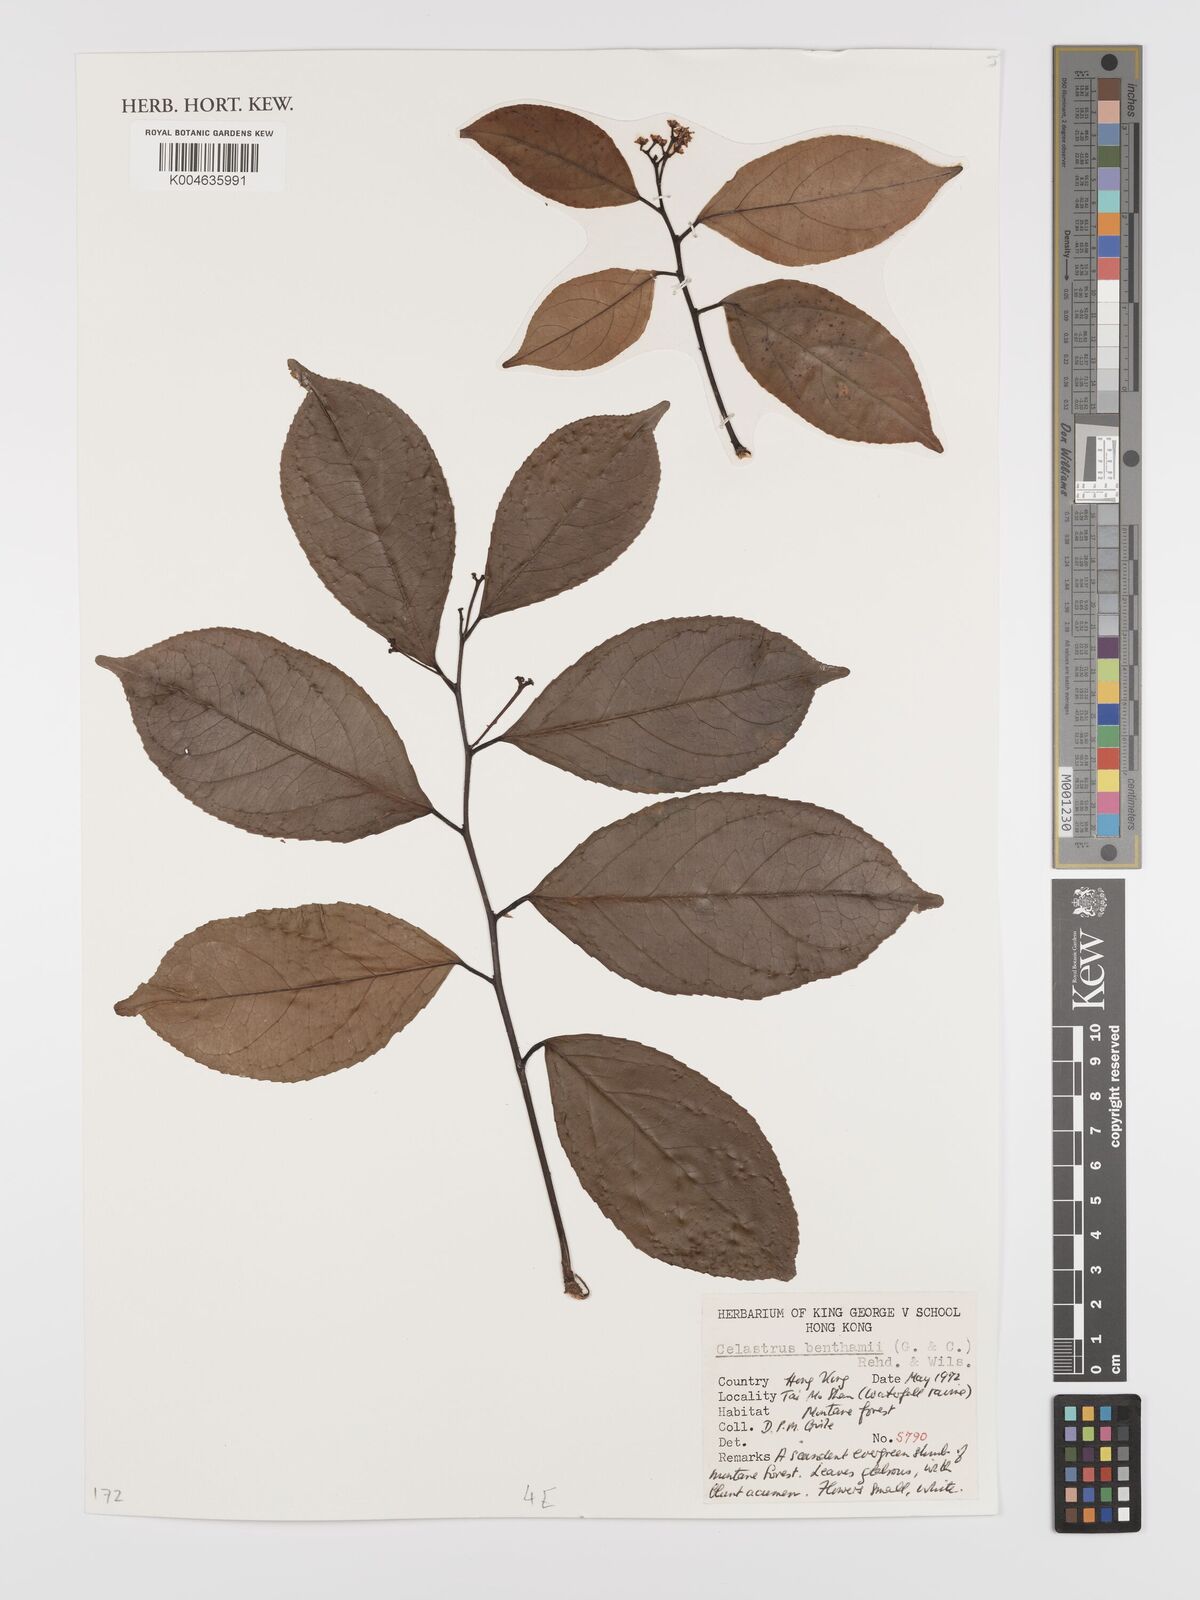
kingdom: Plantae
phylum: Tracheophyta
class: Magnoliopsida
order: Celastrales
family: Celastraceae
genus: Celastrus
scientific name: Celastrus monospermus
